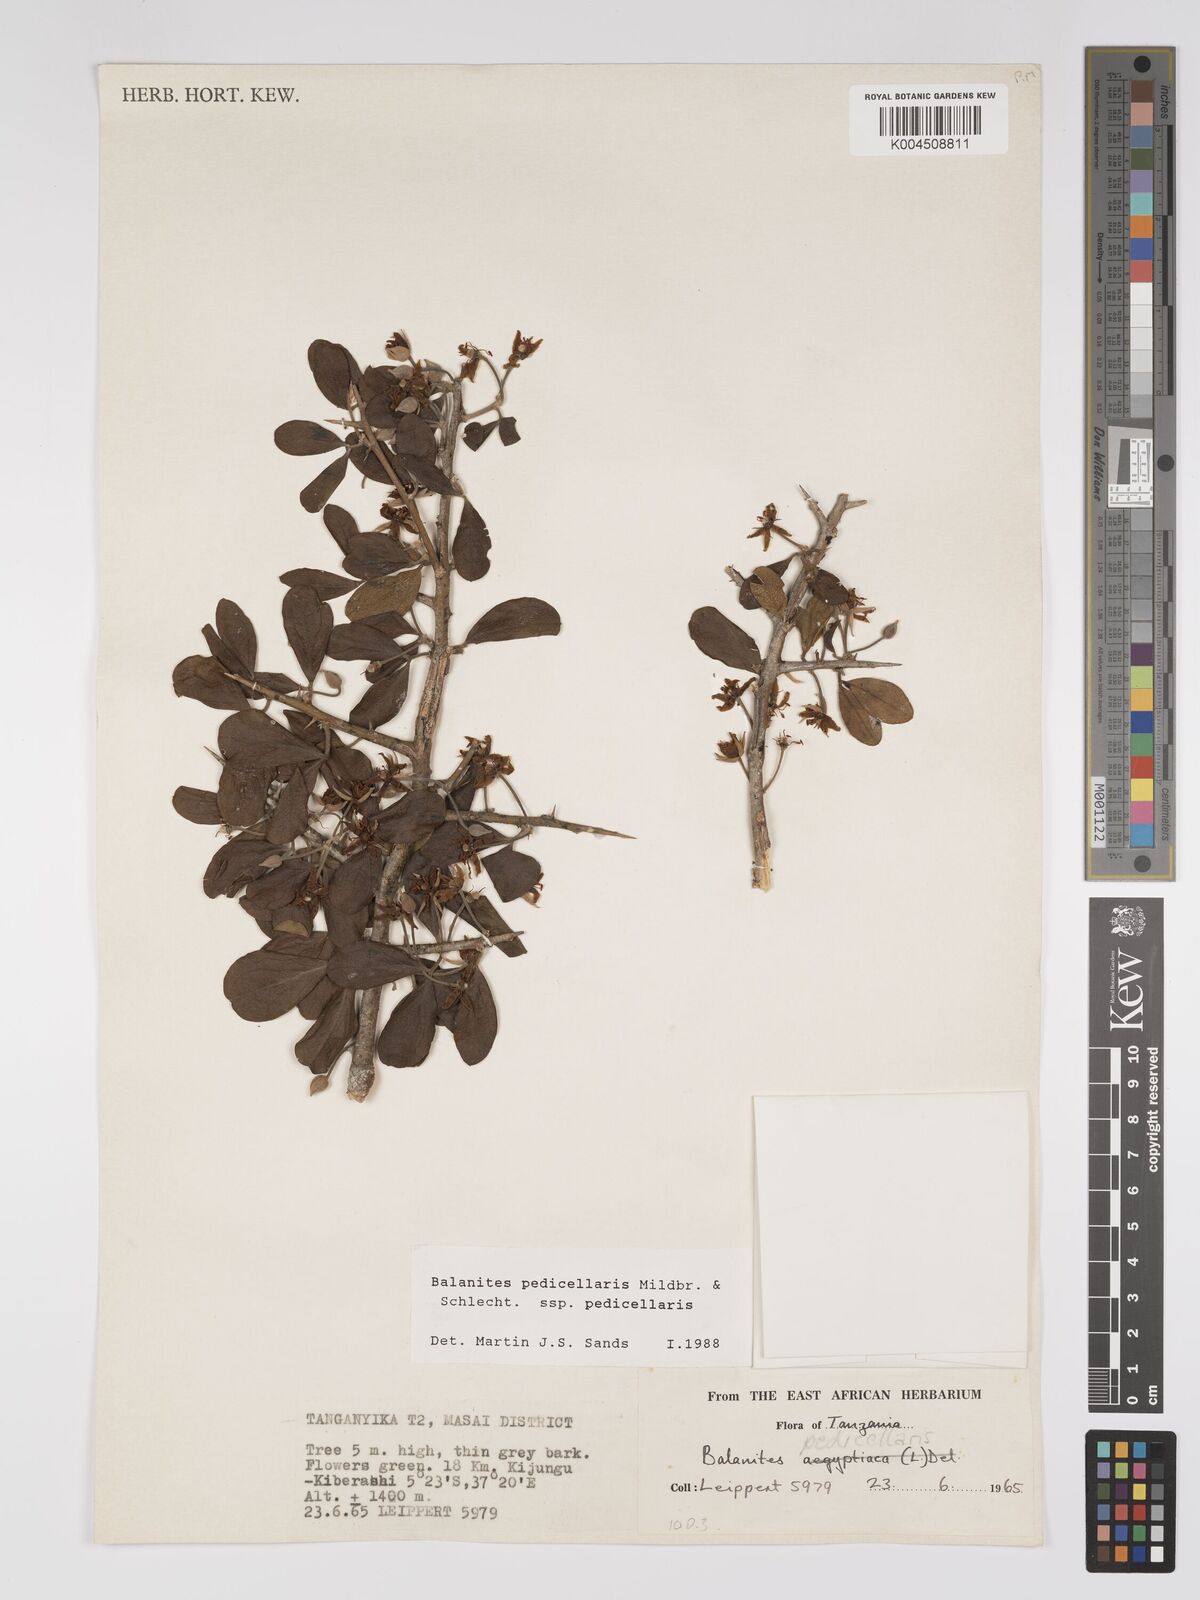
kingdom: Plantae
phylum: Tracheophyta
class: Magnoliopsida
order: Zygophyllales
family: Zygophyllaceae
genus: Balanites
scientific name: Balanites pedicellaris
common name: Small green-thorn
